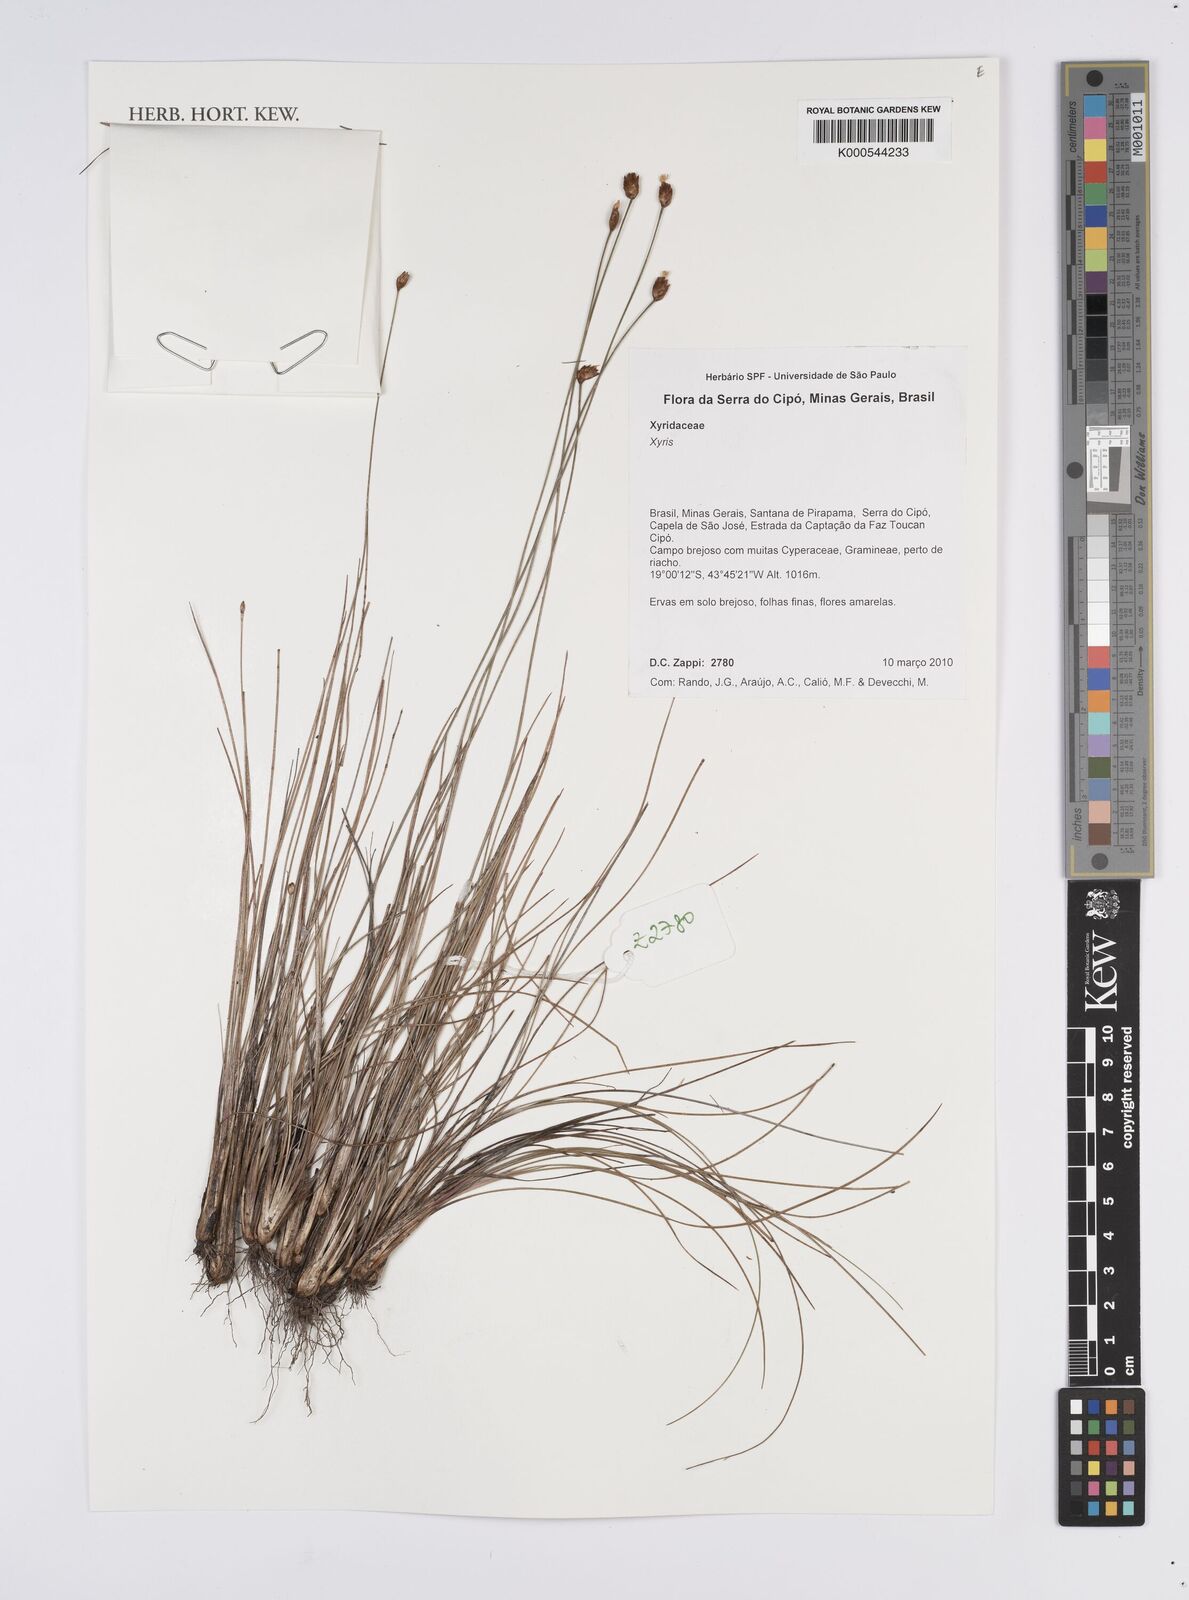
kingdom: Plantae
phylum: Tracheophyta
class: Liliopsida
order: Poales
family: Xyridaceae
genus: Xyris
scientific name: Xyris
